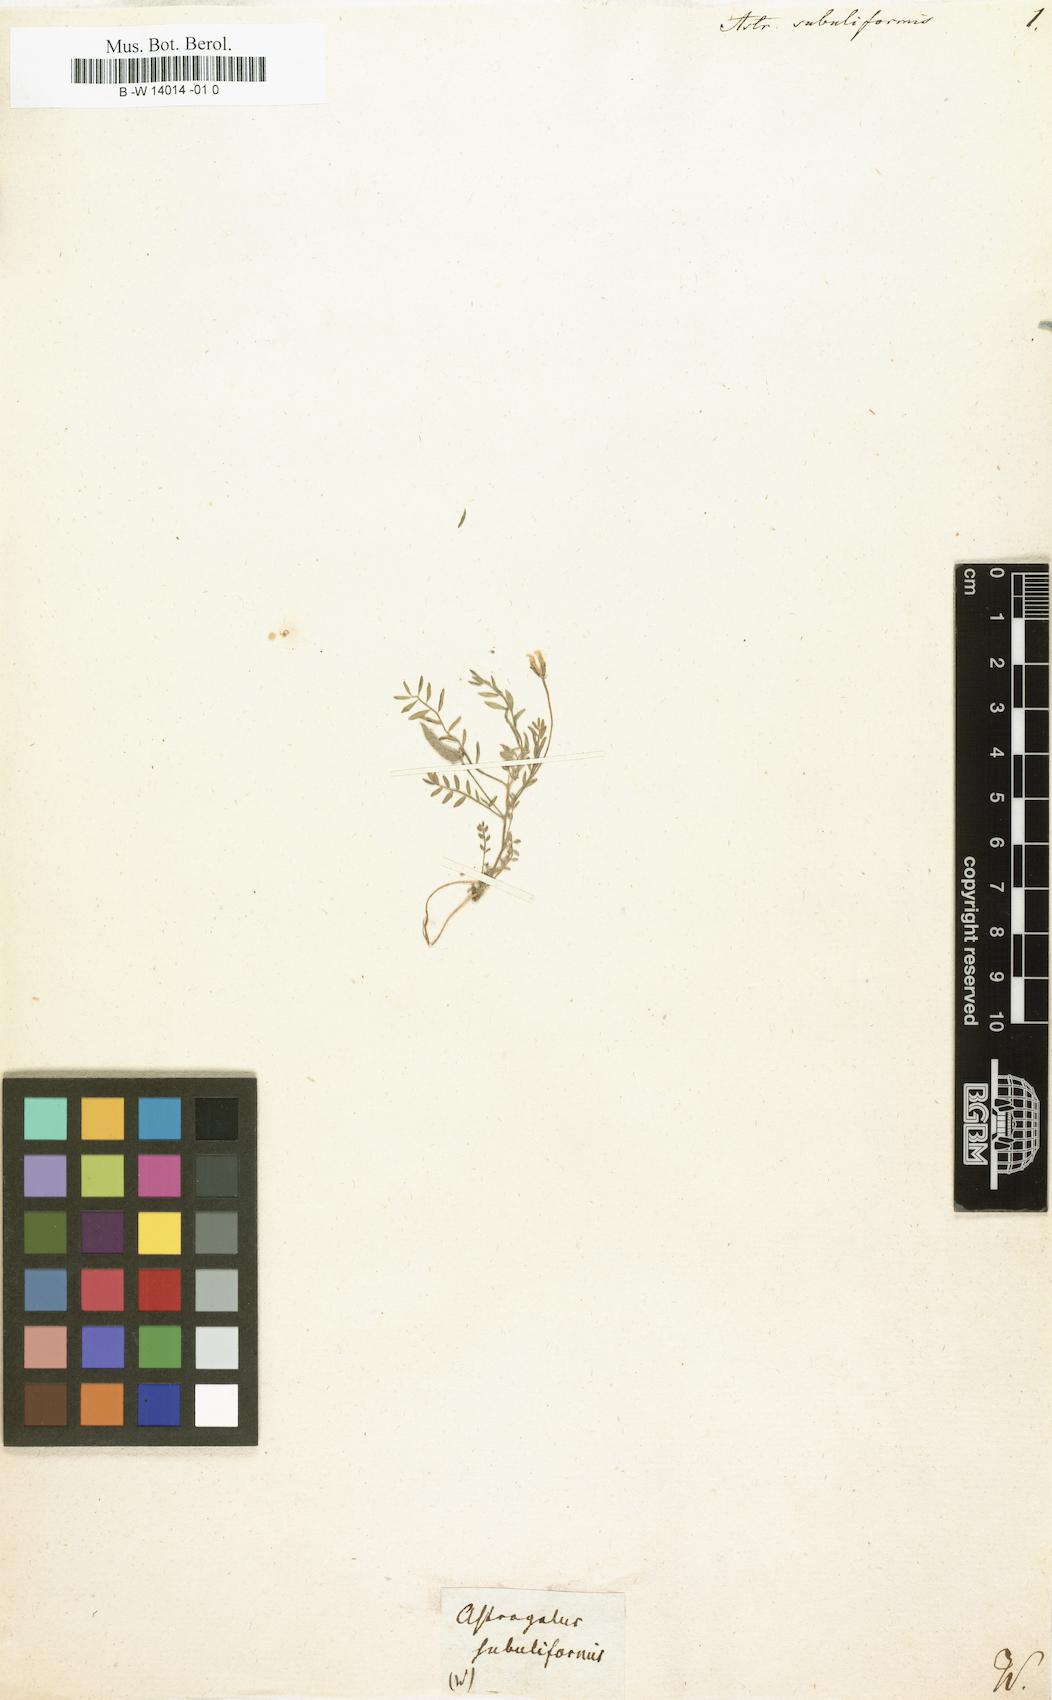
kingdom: Plantae
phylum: Tracheophyta
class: Magnoliopsida
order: Fabales
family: Fabaceae
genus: Astragalus
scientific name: Astragalus subuliformis
